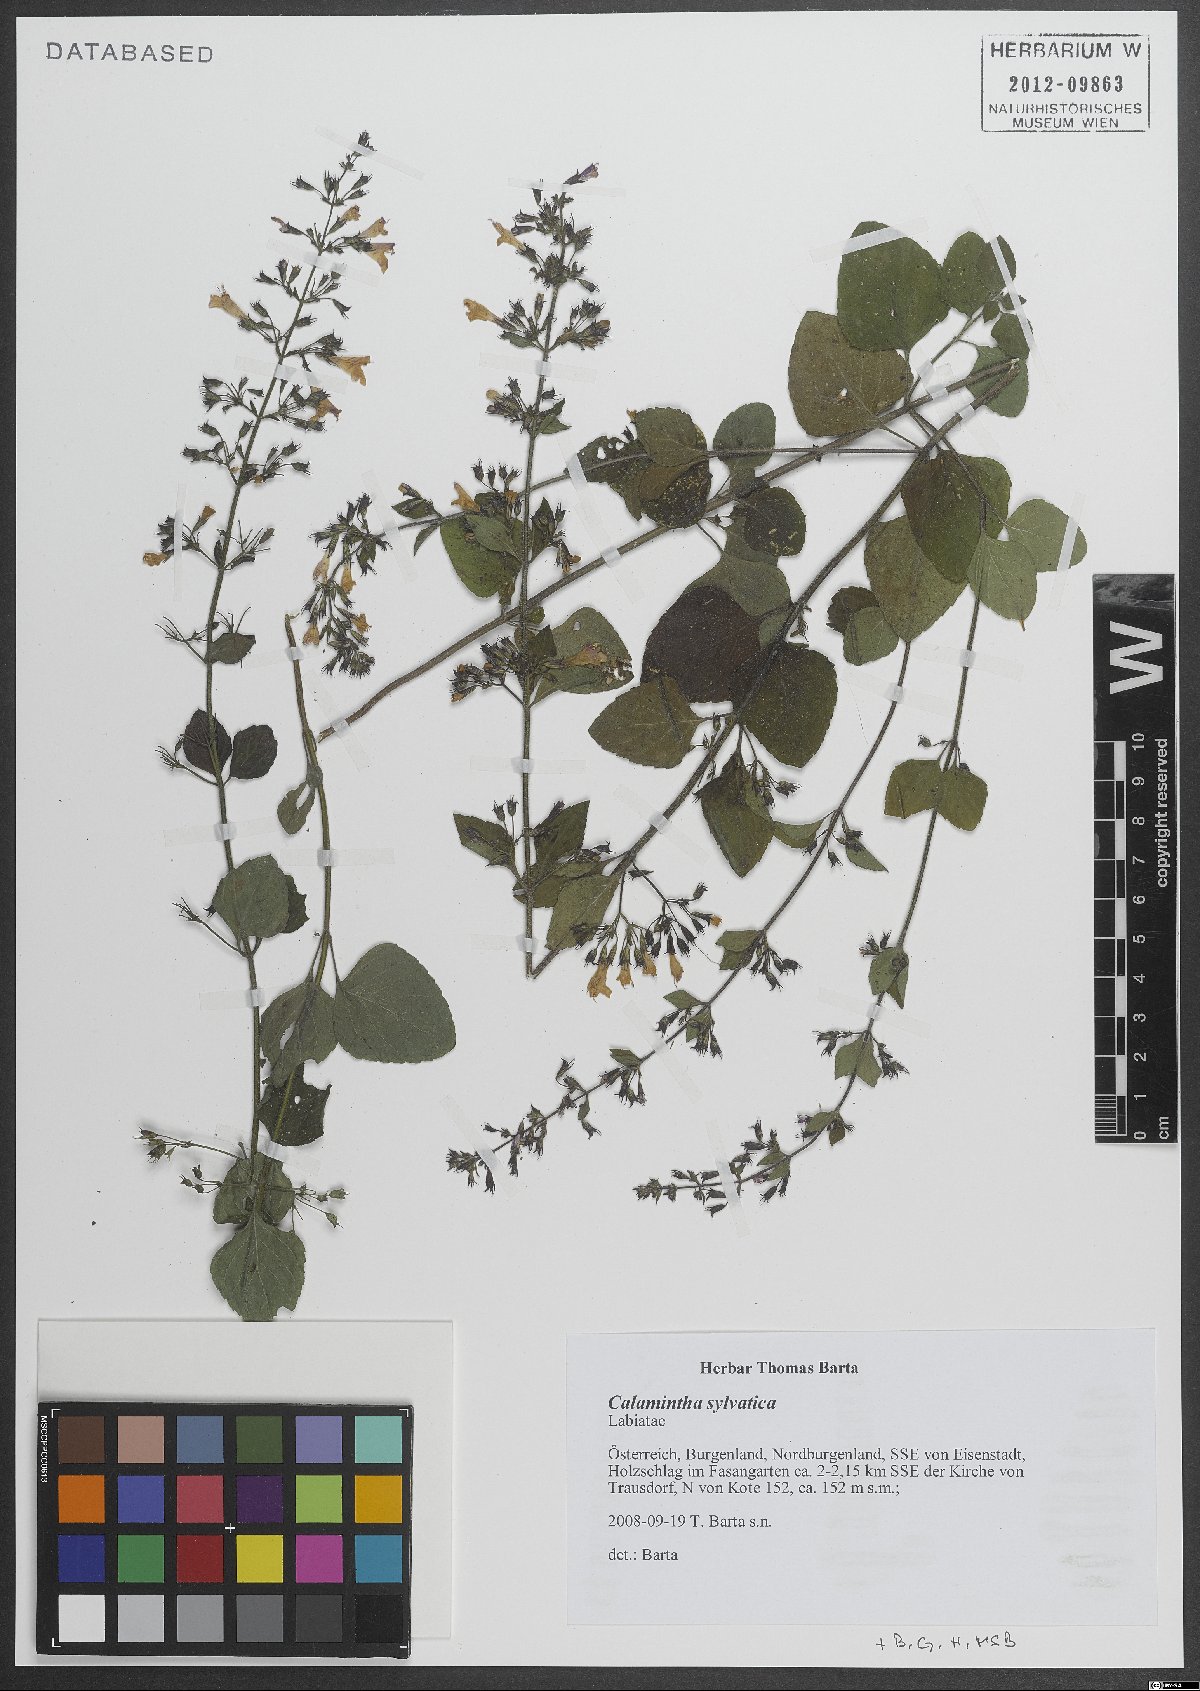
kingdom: Plantae
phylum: Tracheophyta
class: Magnoliopsida
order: Lamiales
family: Lamiaceae
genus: Clinopodium
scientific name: Clinopodium menthifolium
